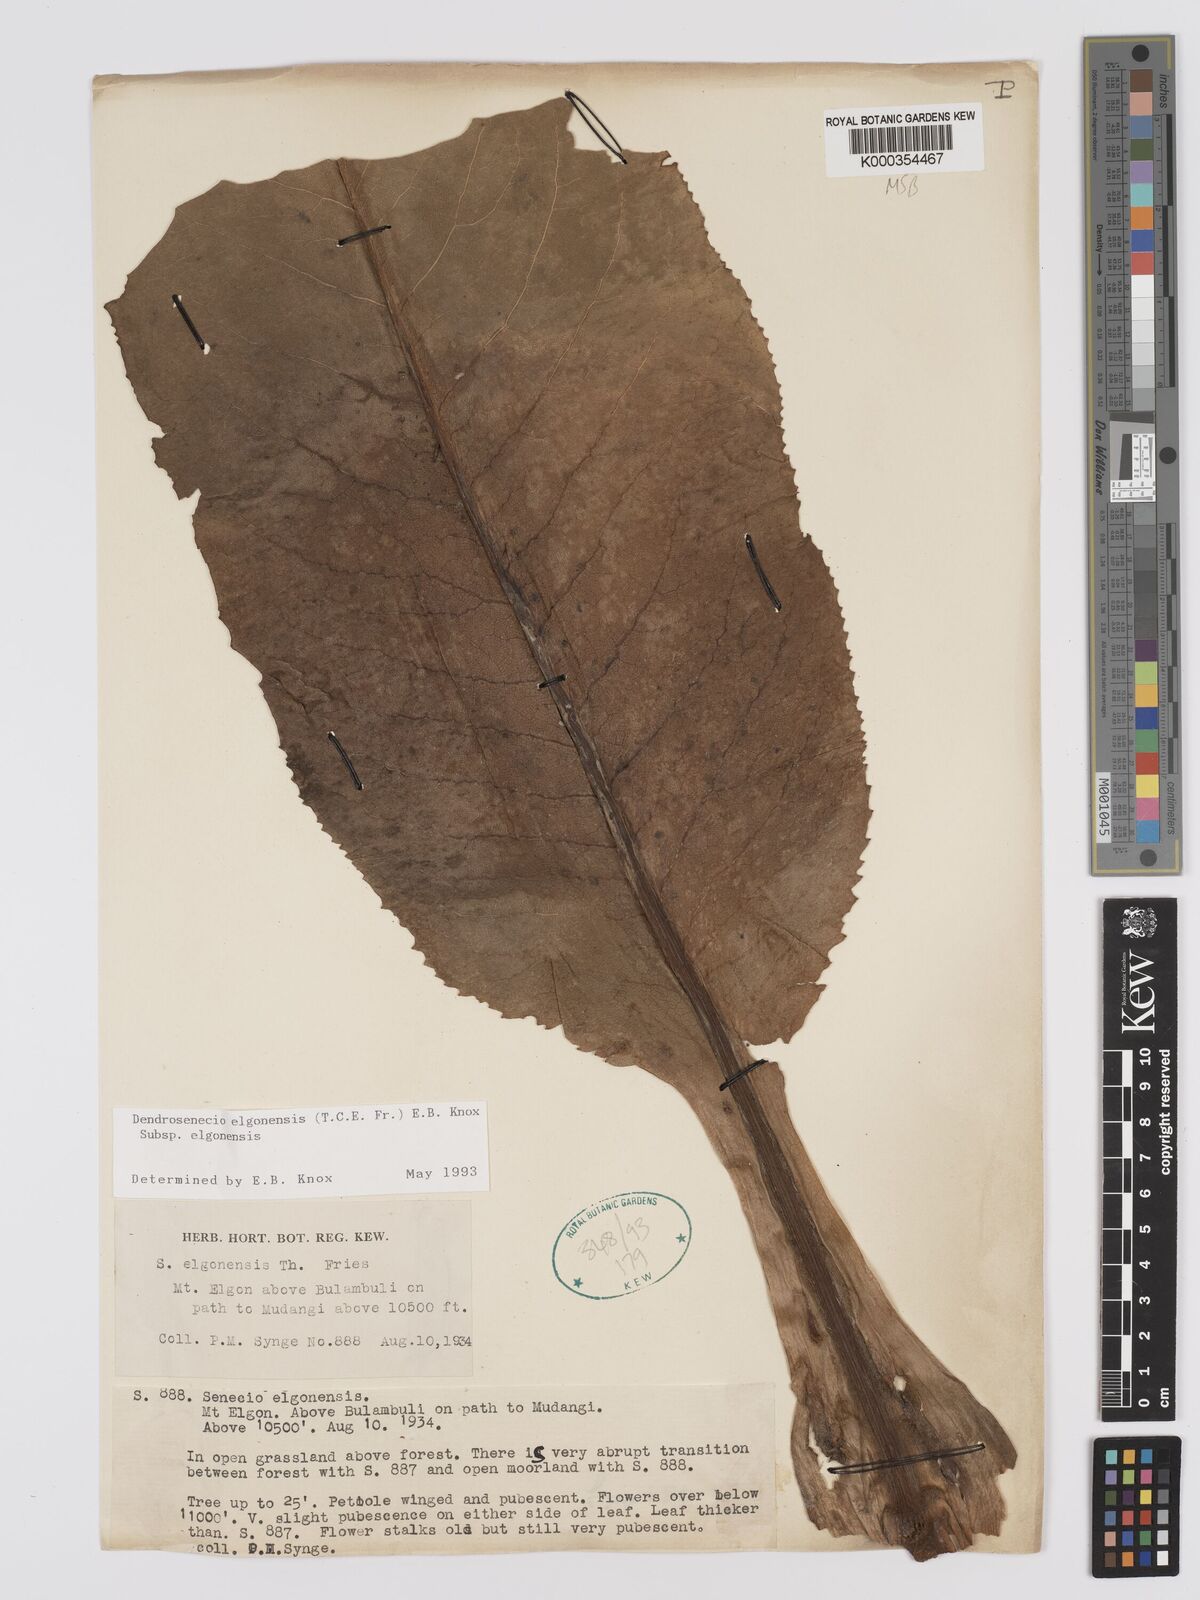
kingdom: Plantae
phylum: Tracheophyta
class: Magnoliopsida
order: Asterales
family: Asteraceae
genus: Dendrosenecio
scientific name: Dendrosenecio elgonensis
